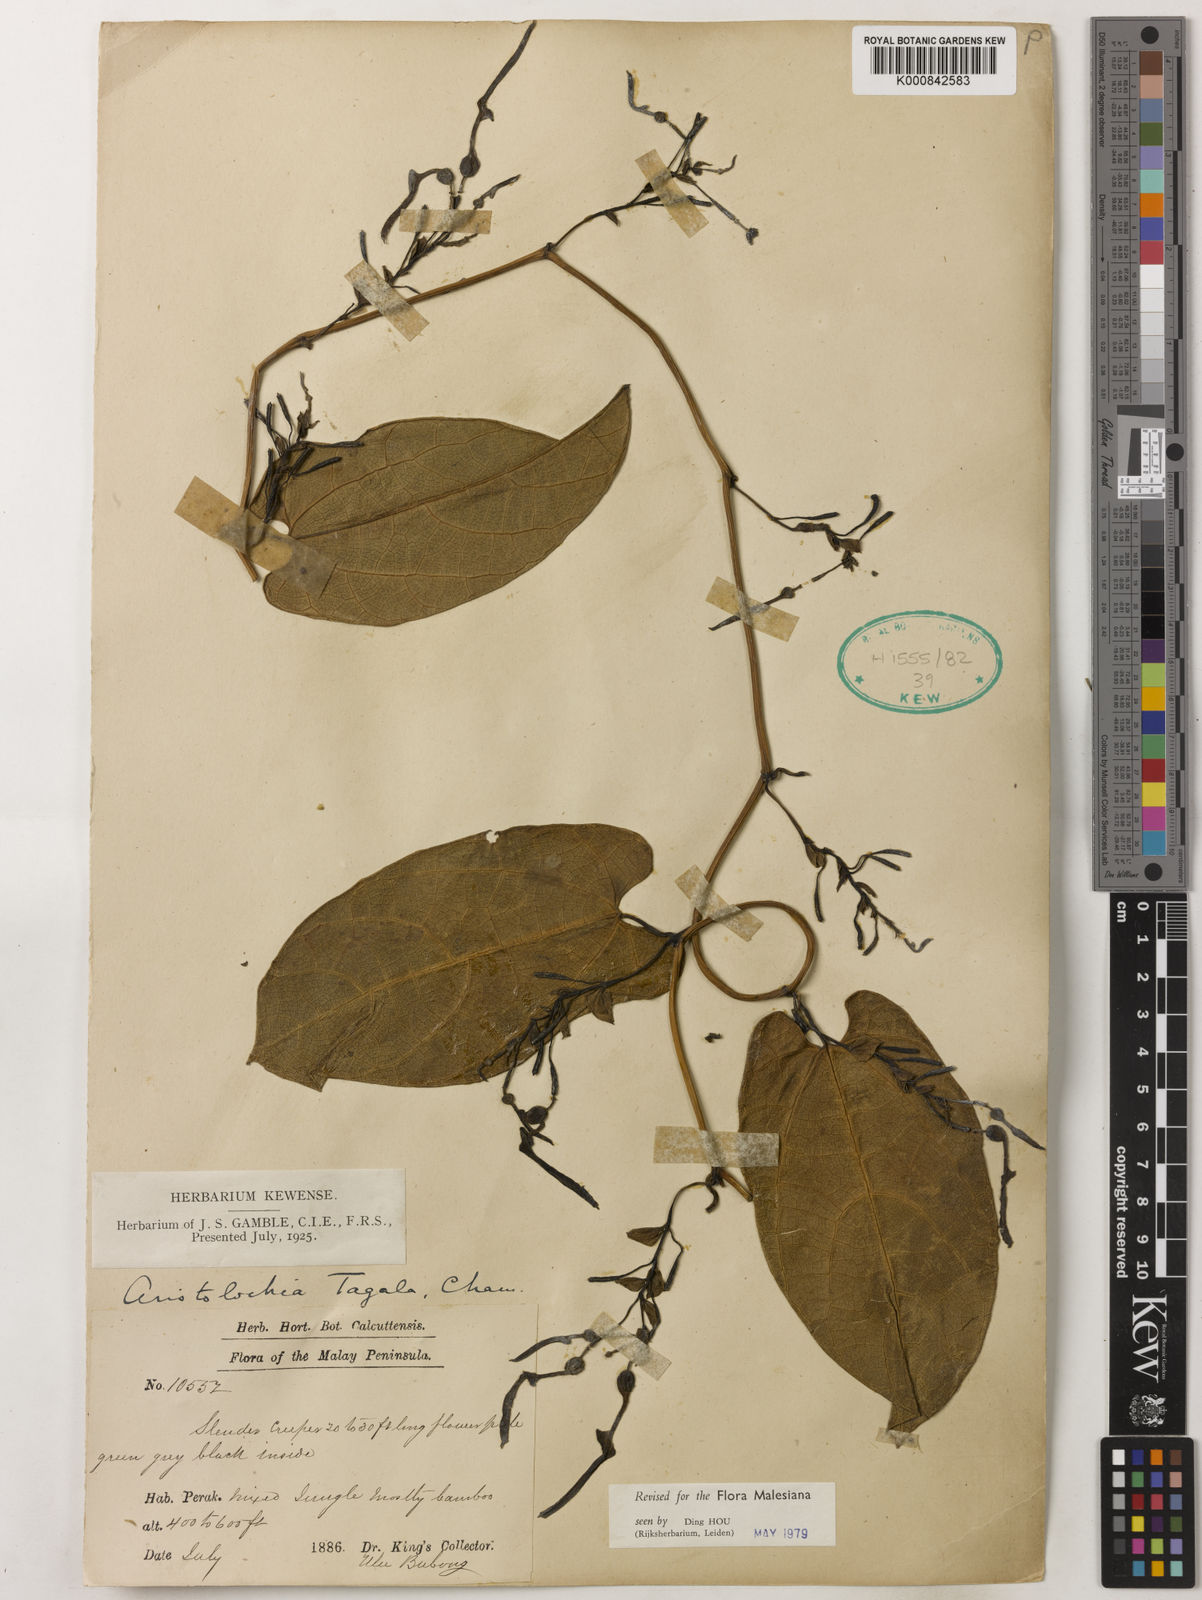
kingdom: Plantae
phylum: Tracheophyta
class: Magnoliopsida
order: Piperales
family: Aristolochiaceae
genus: Aristolochia
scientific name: Aristolochia acuminata
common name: Indian birthwort
